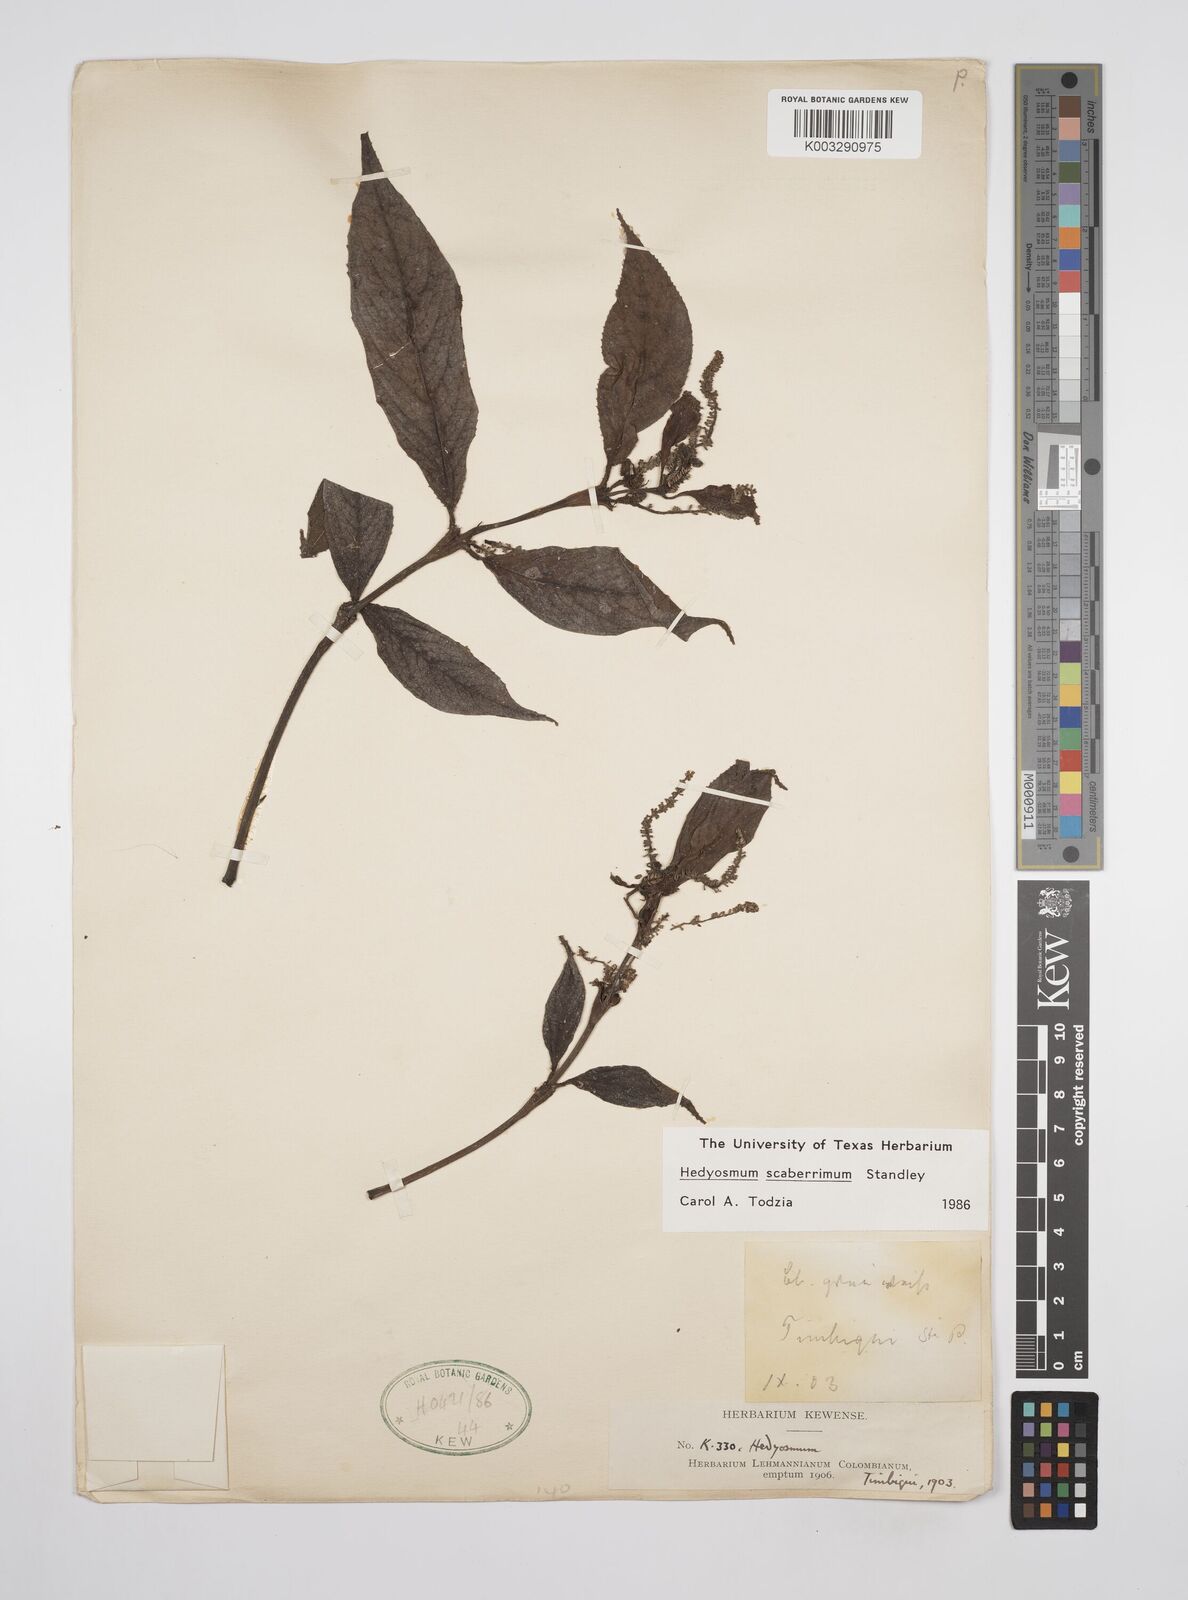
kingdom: Plantae
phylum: Tracheophyta
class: Magnoliopsida
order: Chloranthales
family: Chloranthaceae
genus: Hedyosmum
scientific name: Hedyosmum scaberrimum
